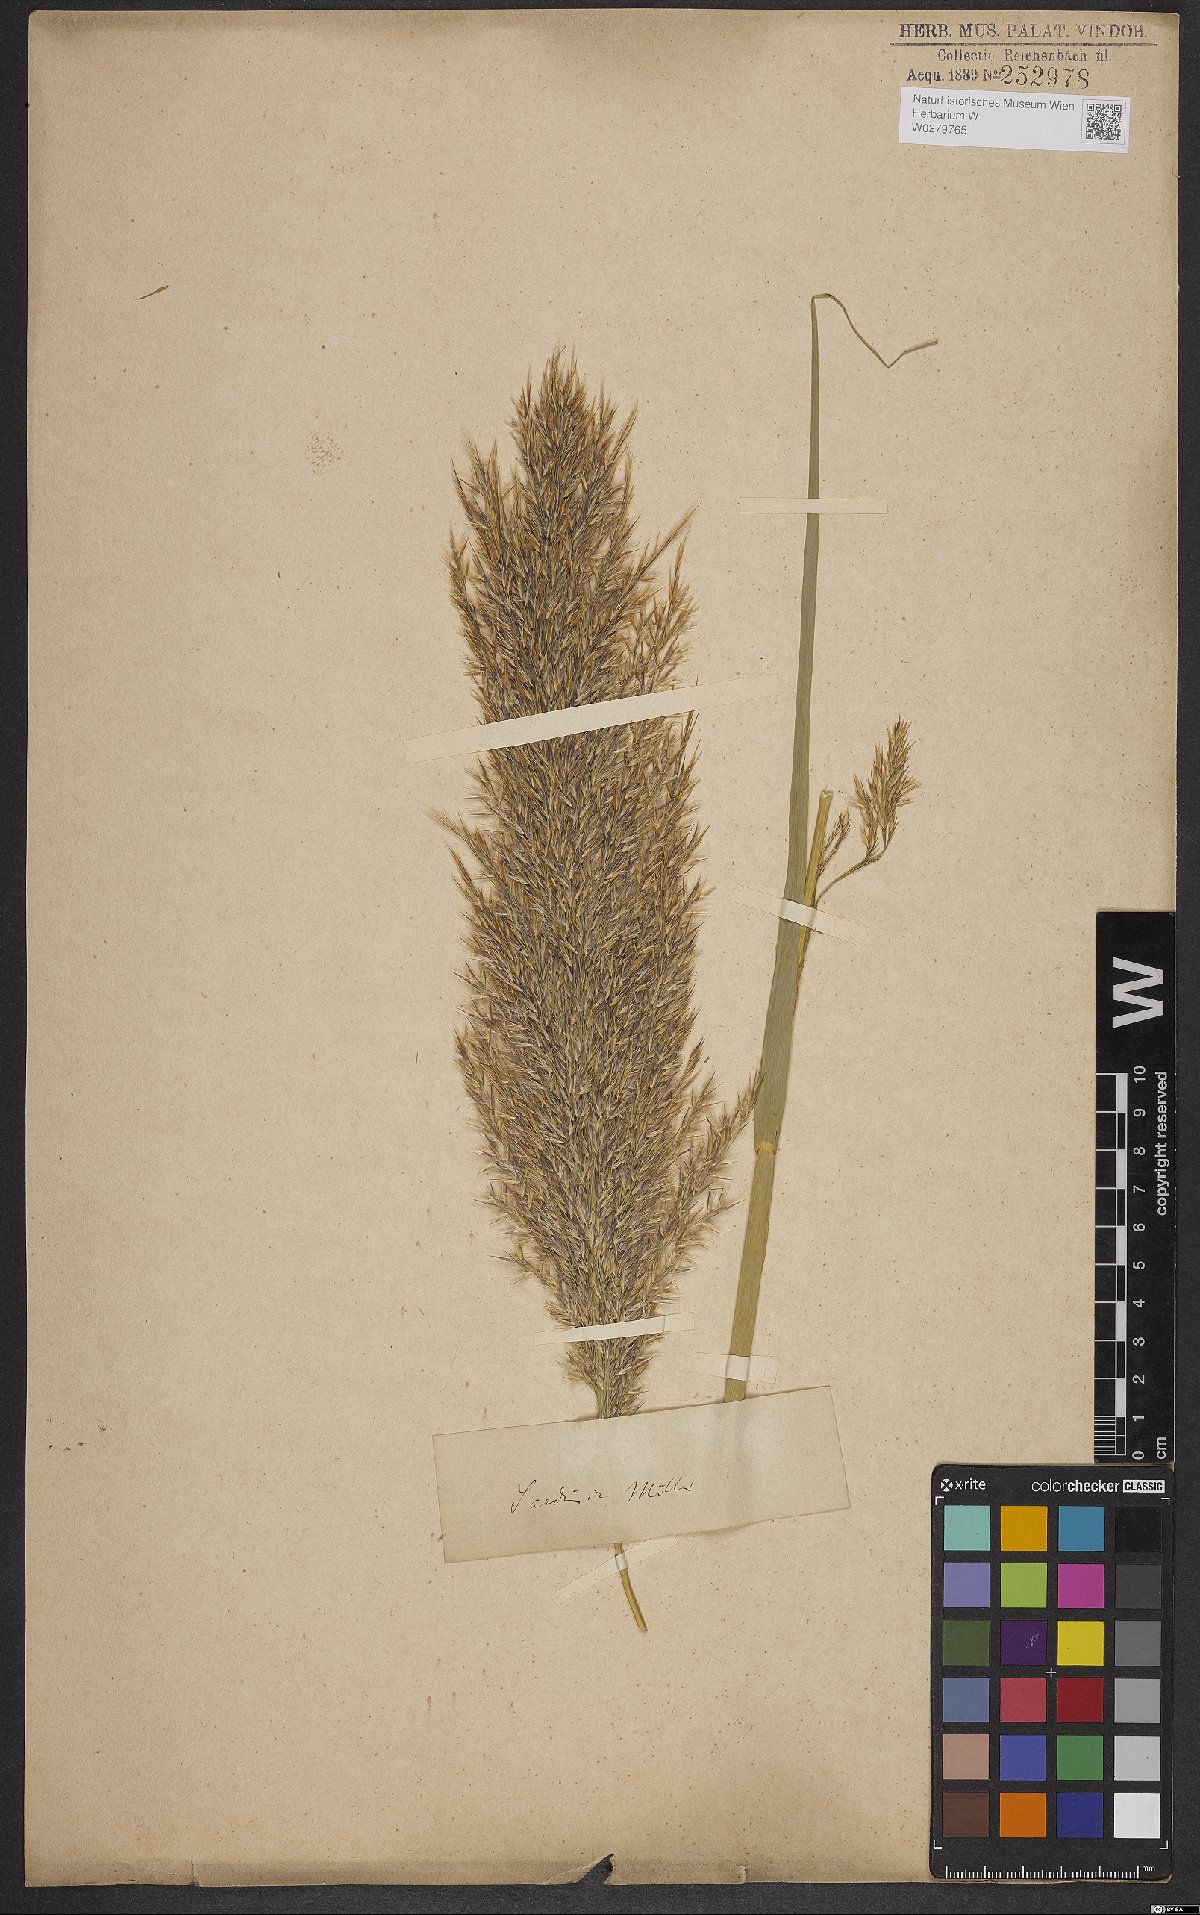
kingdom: Plantae
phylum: Tracheophyta
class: Liliopsida
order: Poales
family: Poaceae
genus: Arundinella
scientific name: Arundinella hispida
